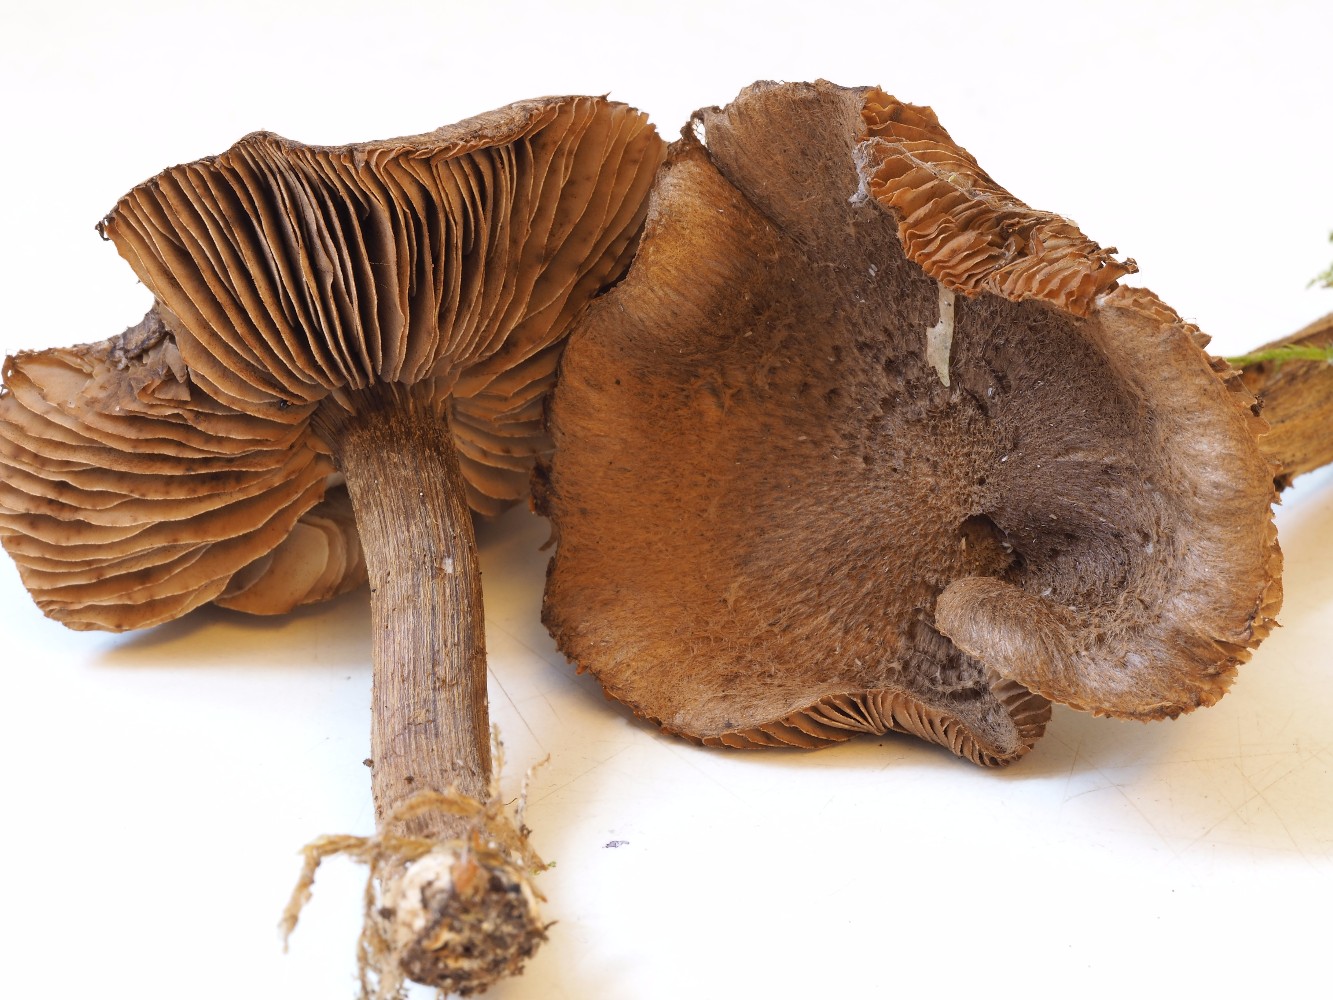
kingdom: Fungi
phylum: Basidiomycota
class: Agaricomycetes
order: Agaricales
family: Inocybaceae
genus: Inocybe
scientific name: Inocybe
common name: trævlhat
